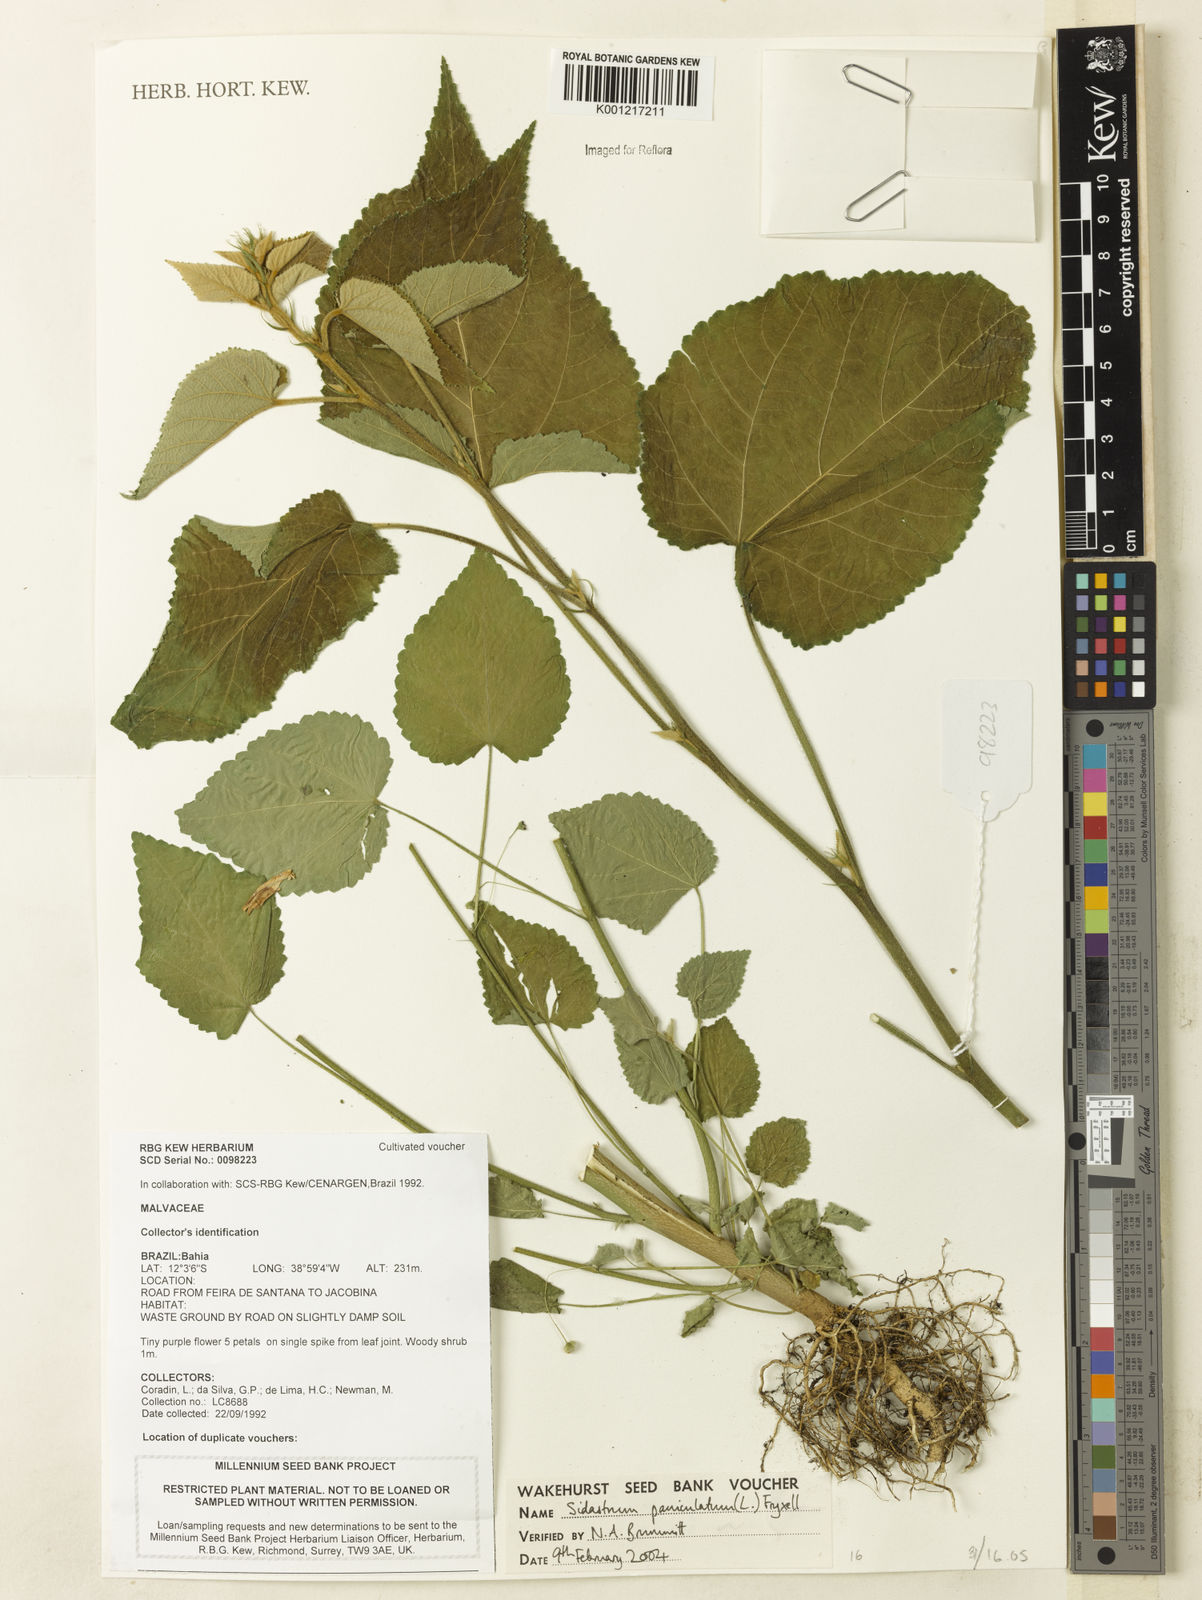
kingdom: Plantae
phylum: Tracheophyta
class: Magnoliopsida
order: Malvales
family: Malvaceae
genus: Sidastrum
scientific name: Sidastrum paniculatum
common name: Panicled sandmallow
